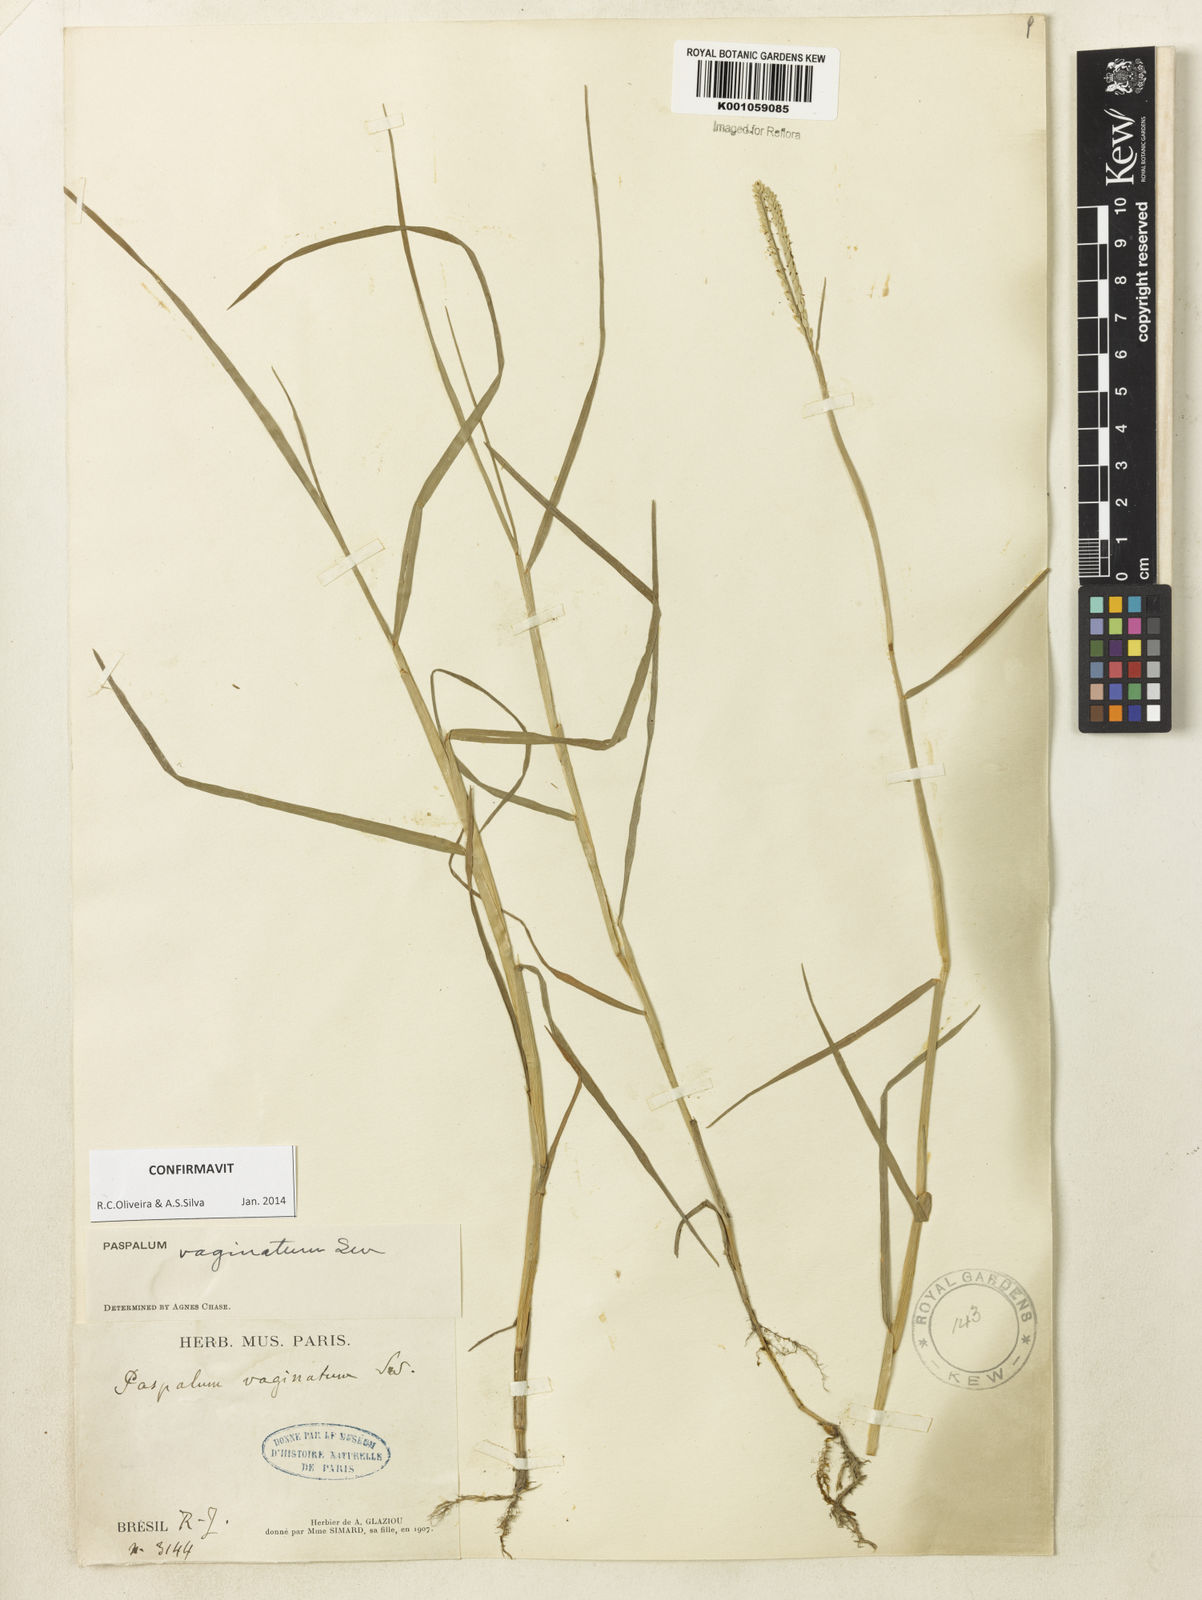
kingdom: Plantae
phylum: Tracheophyta
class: Liliopsida
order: Poales
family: Poaceae
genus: Paspalum
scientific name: Paspalum vaginatum
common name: Seashore paspalum
